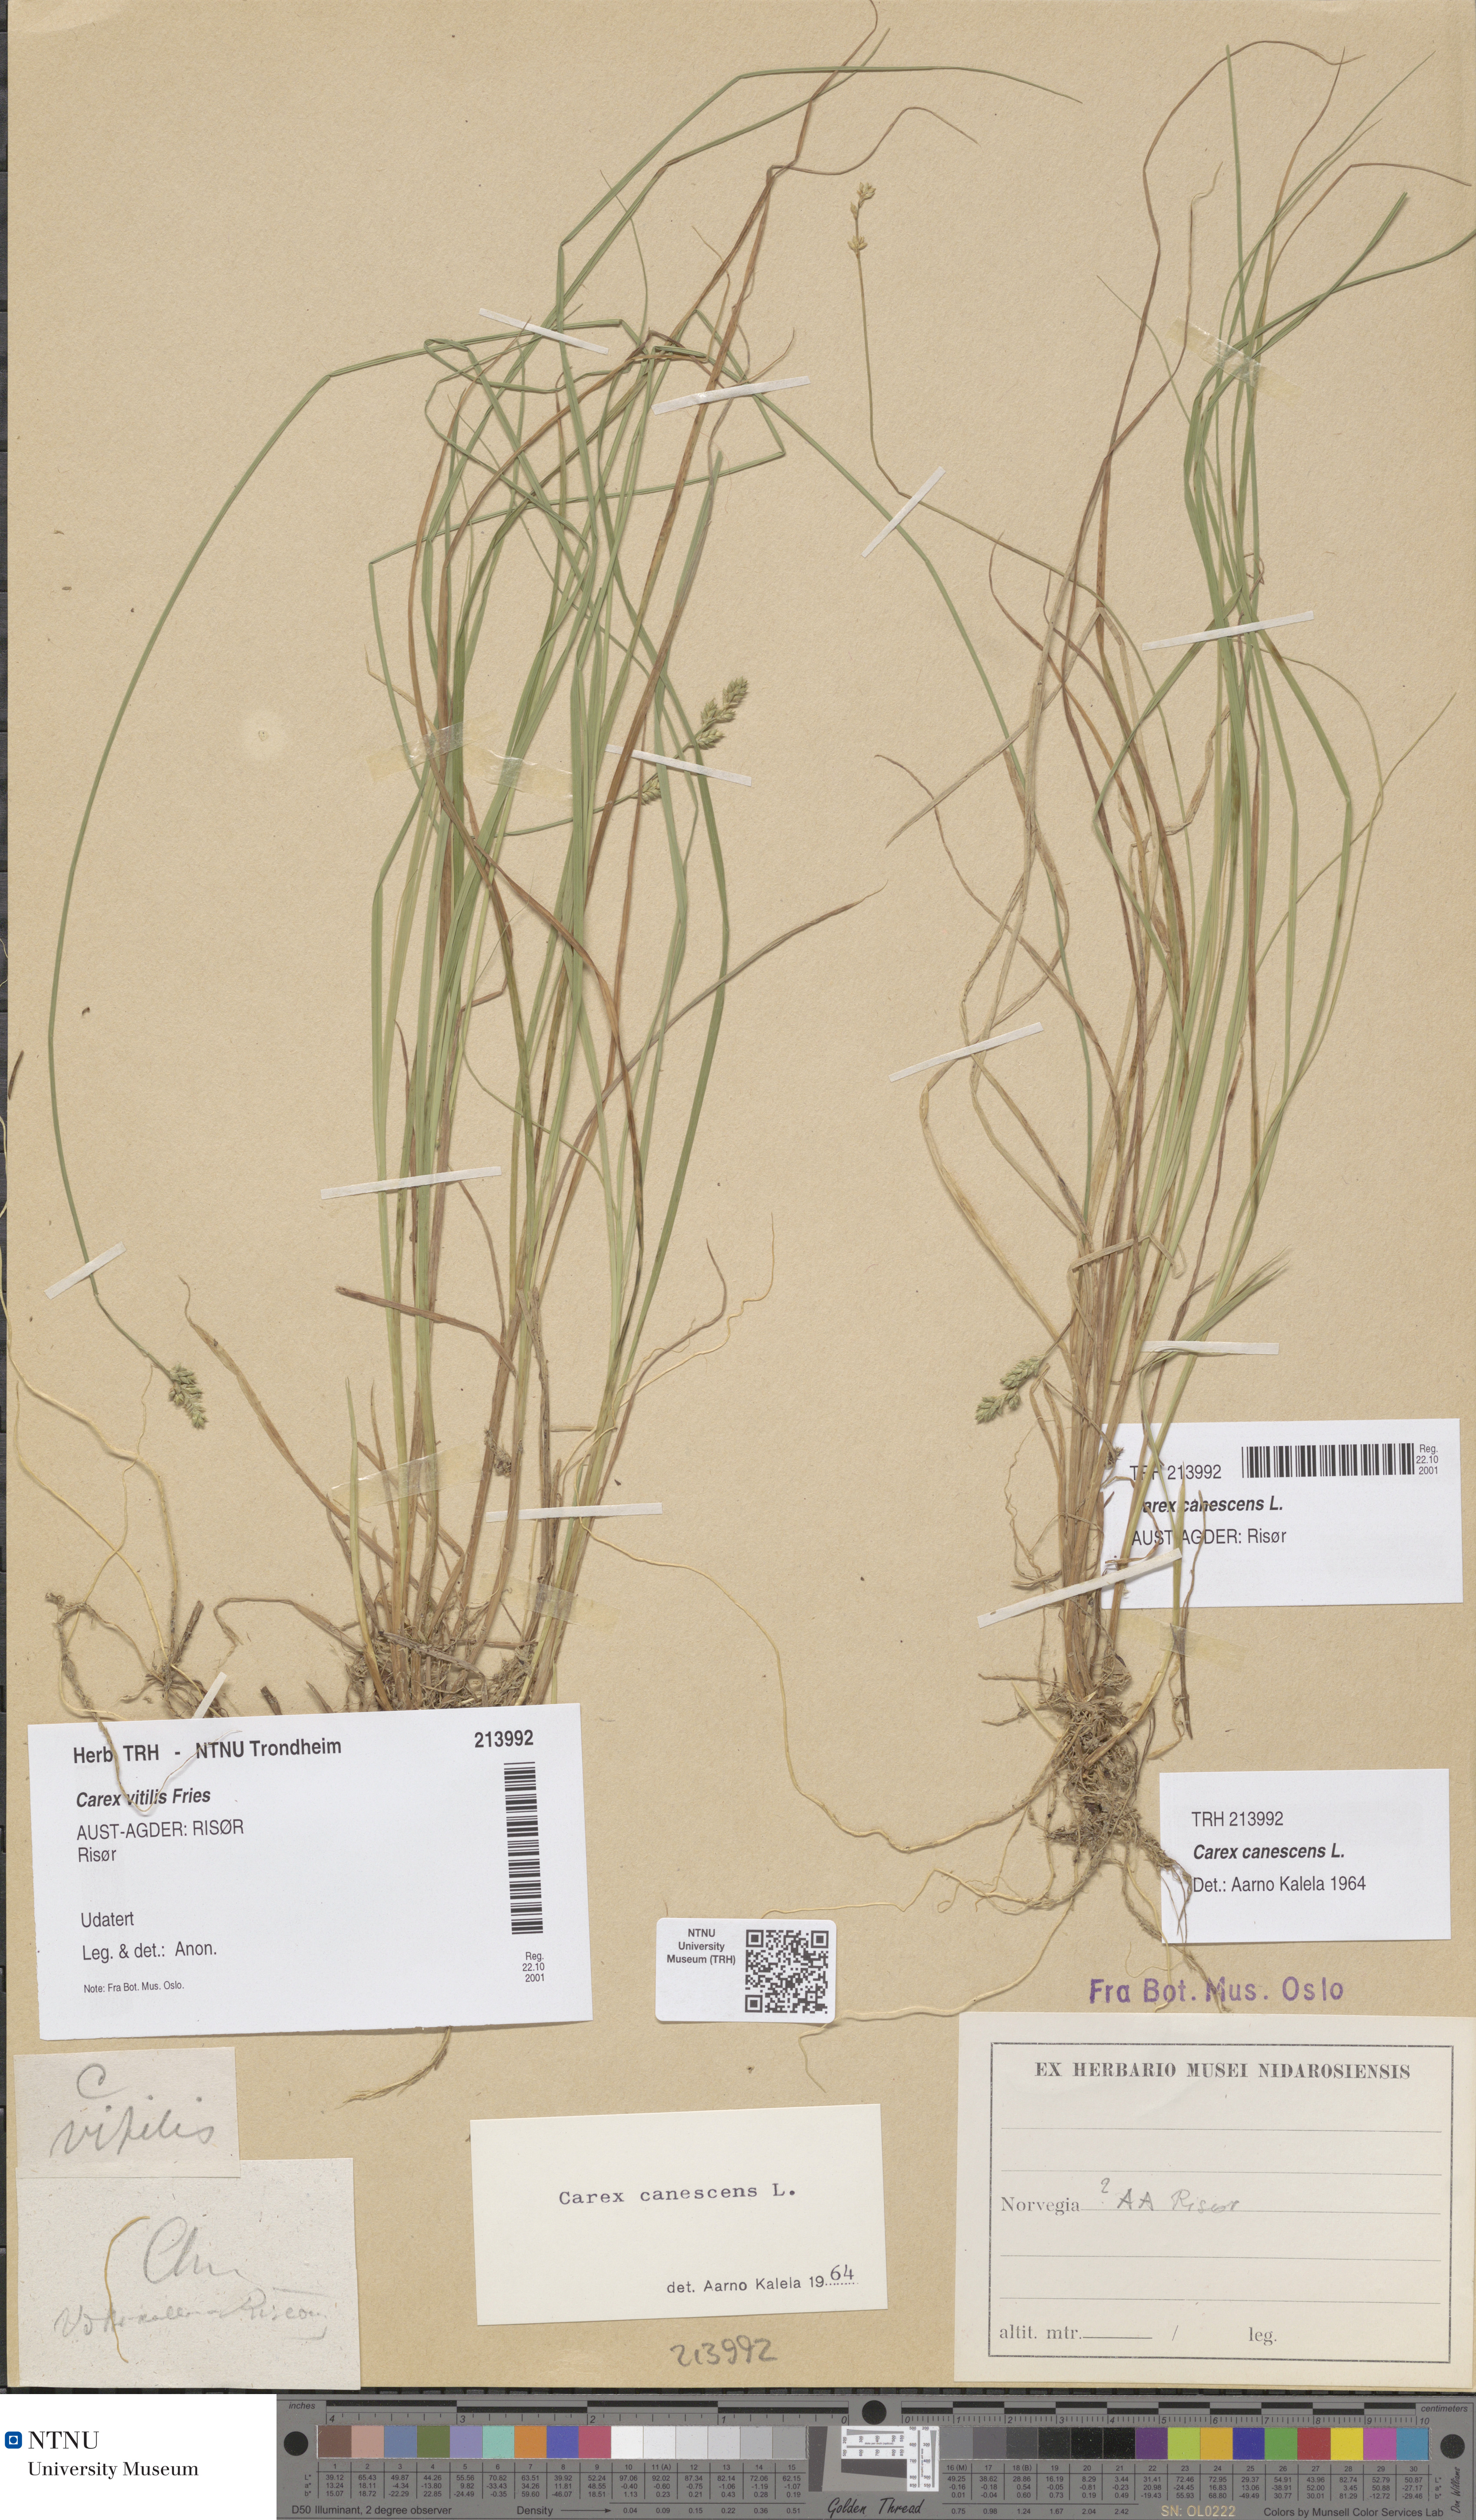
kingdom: Plantae
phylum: Tracheophyta
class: Liliopsida
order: Poales
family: Cyperaceae
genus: Carex
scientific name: Carex canescens
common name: White sedge
